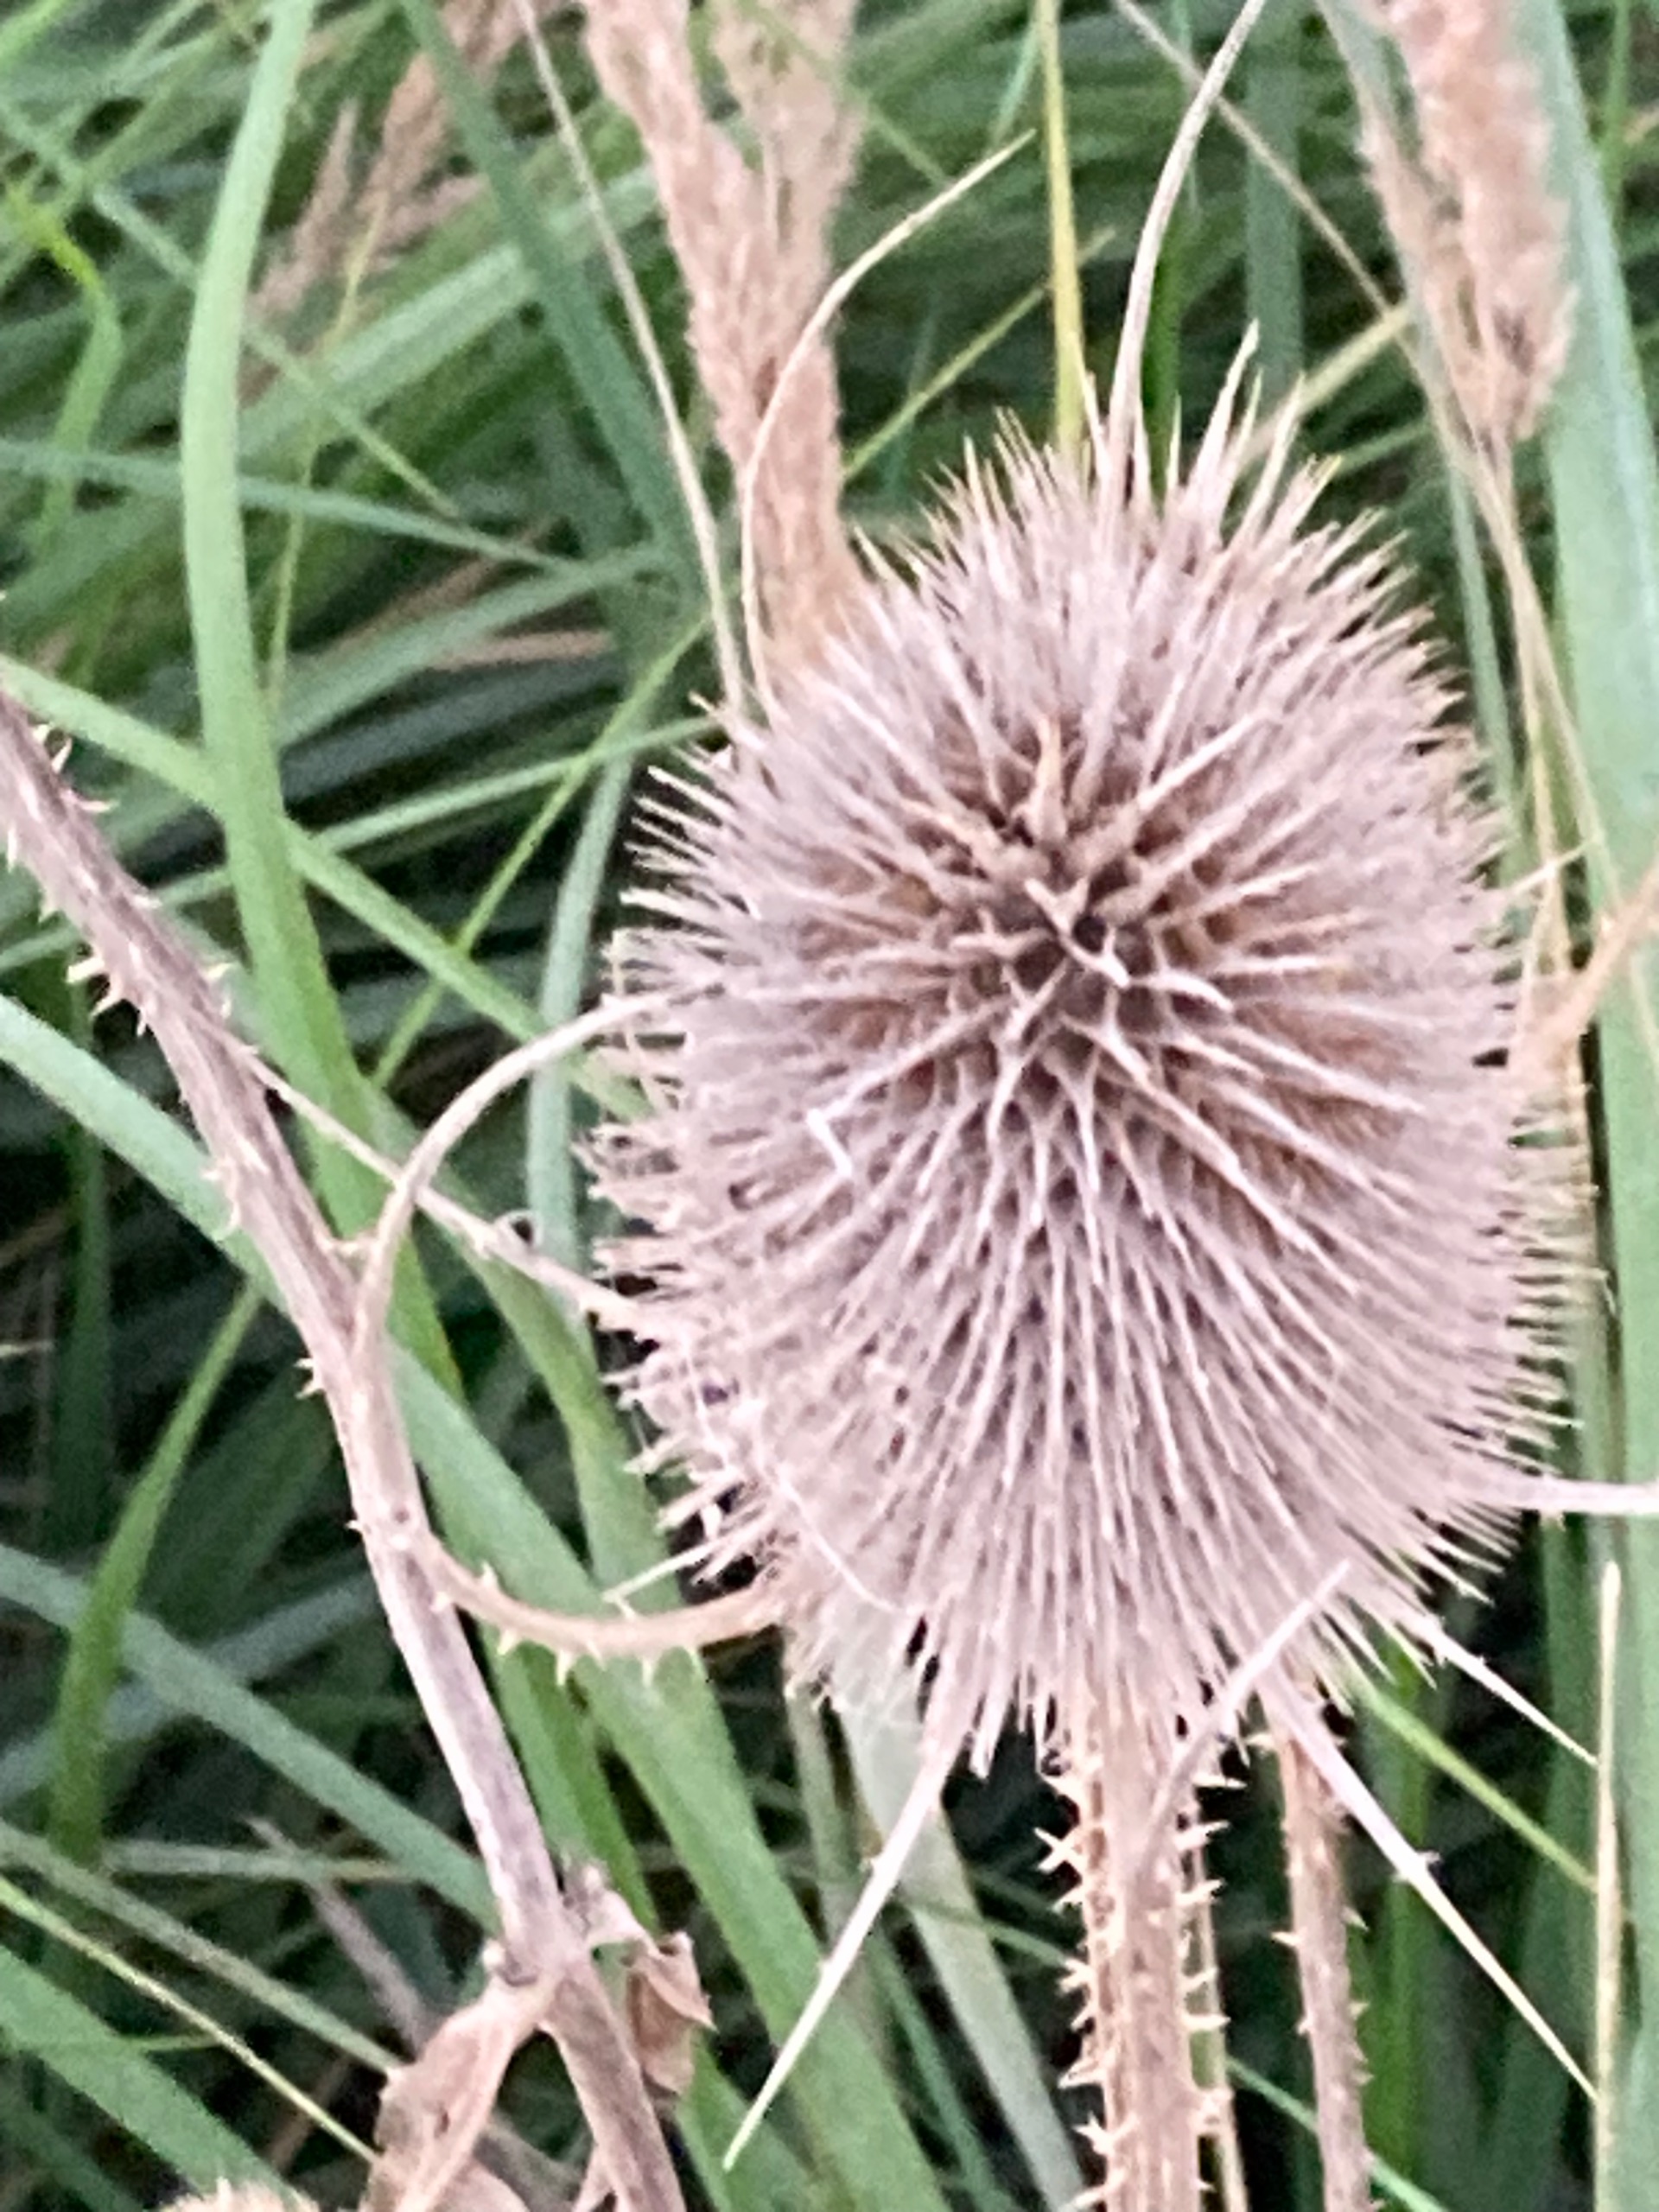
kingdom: Plantae
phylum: Tracheophyta
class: Magnoliopsida
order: Dipsacales
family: Caprifoliaceae
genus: Dipsacus
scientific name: Dipsacus fullonum
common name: Gærde-kartebolle
